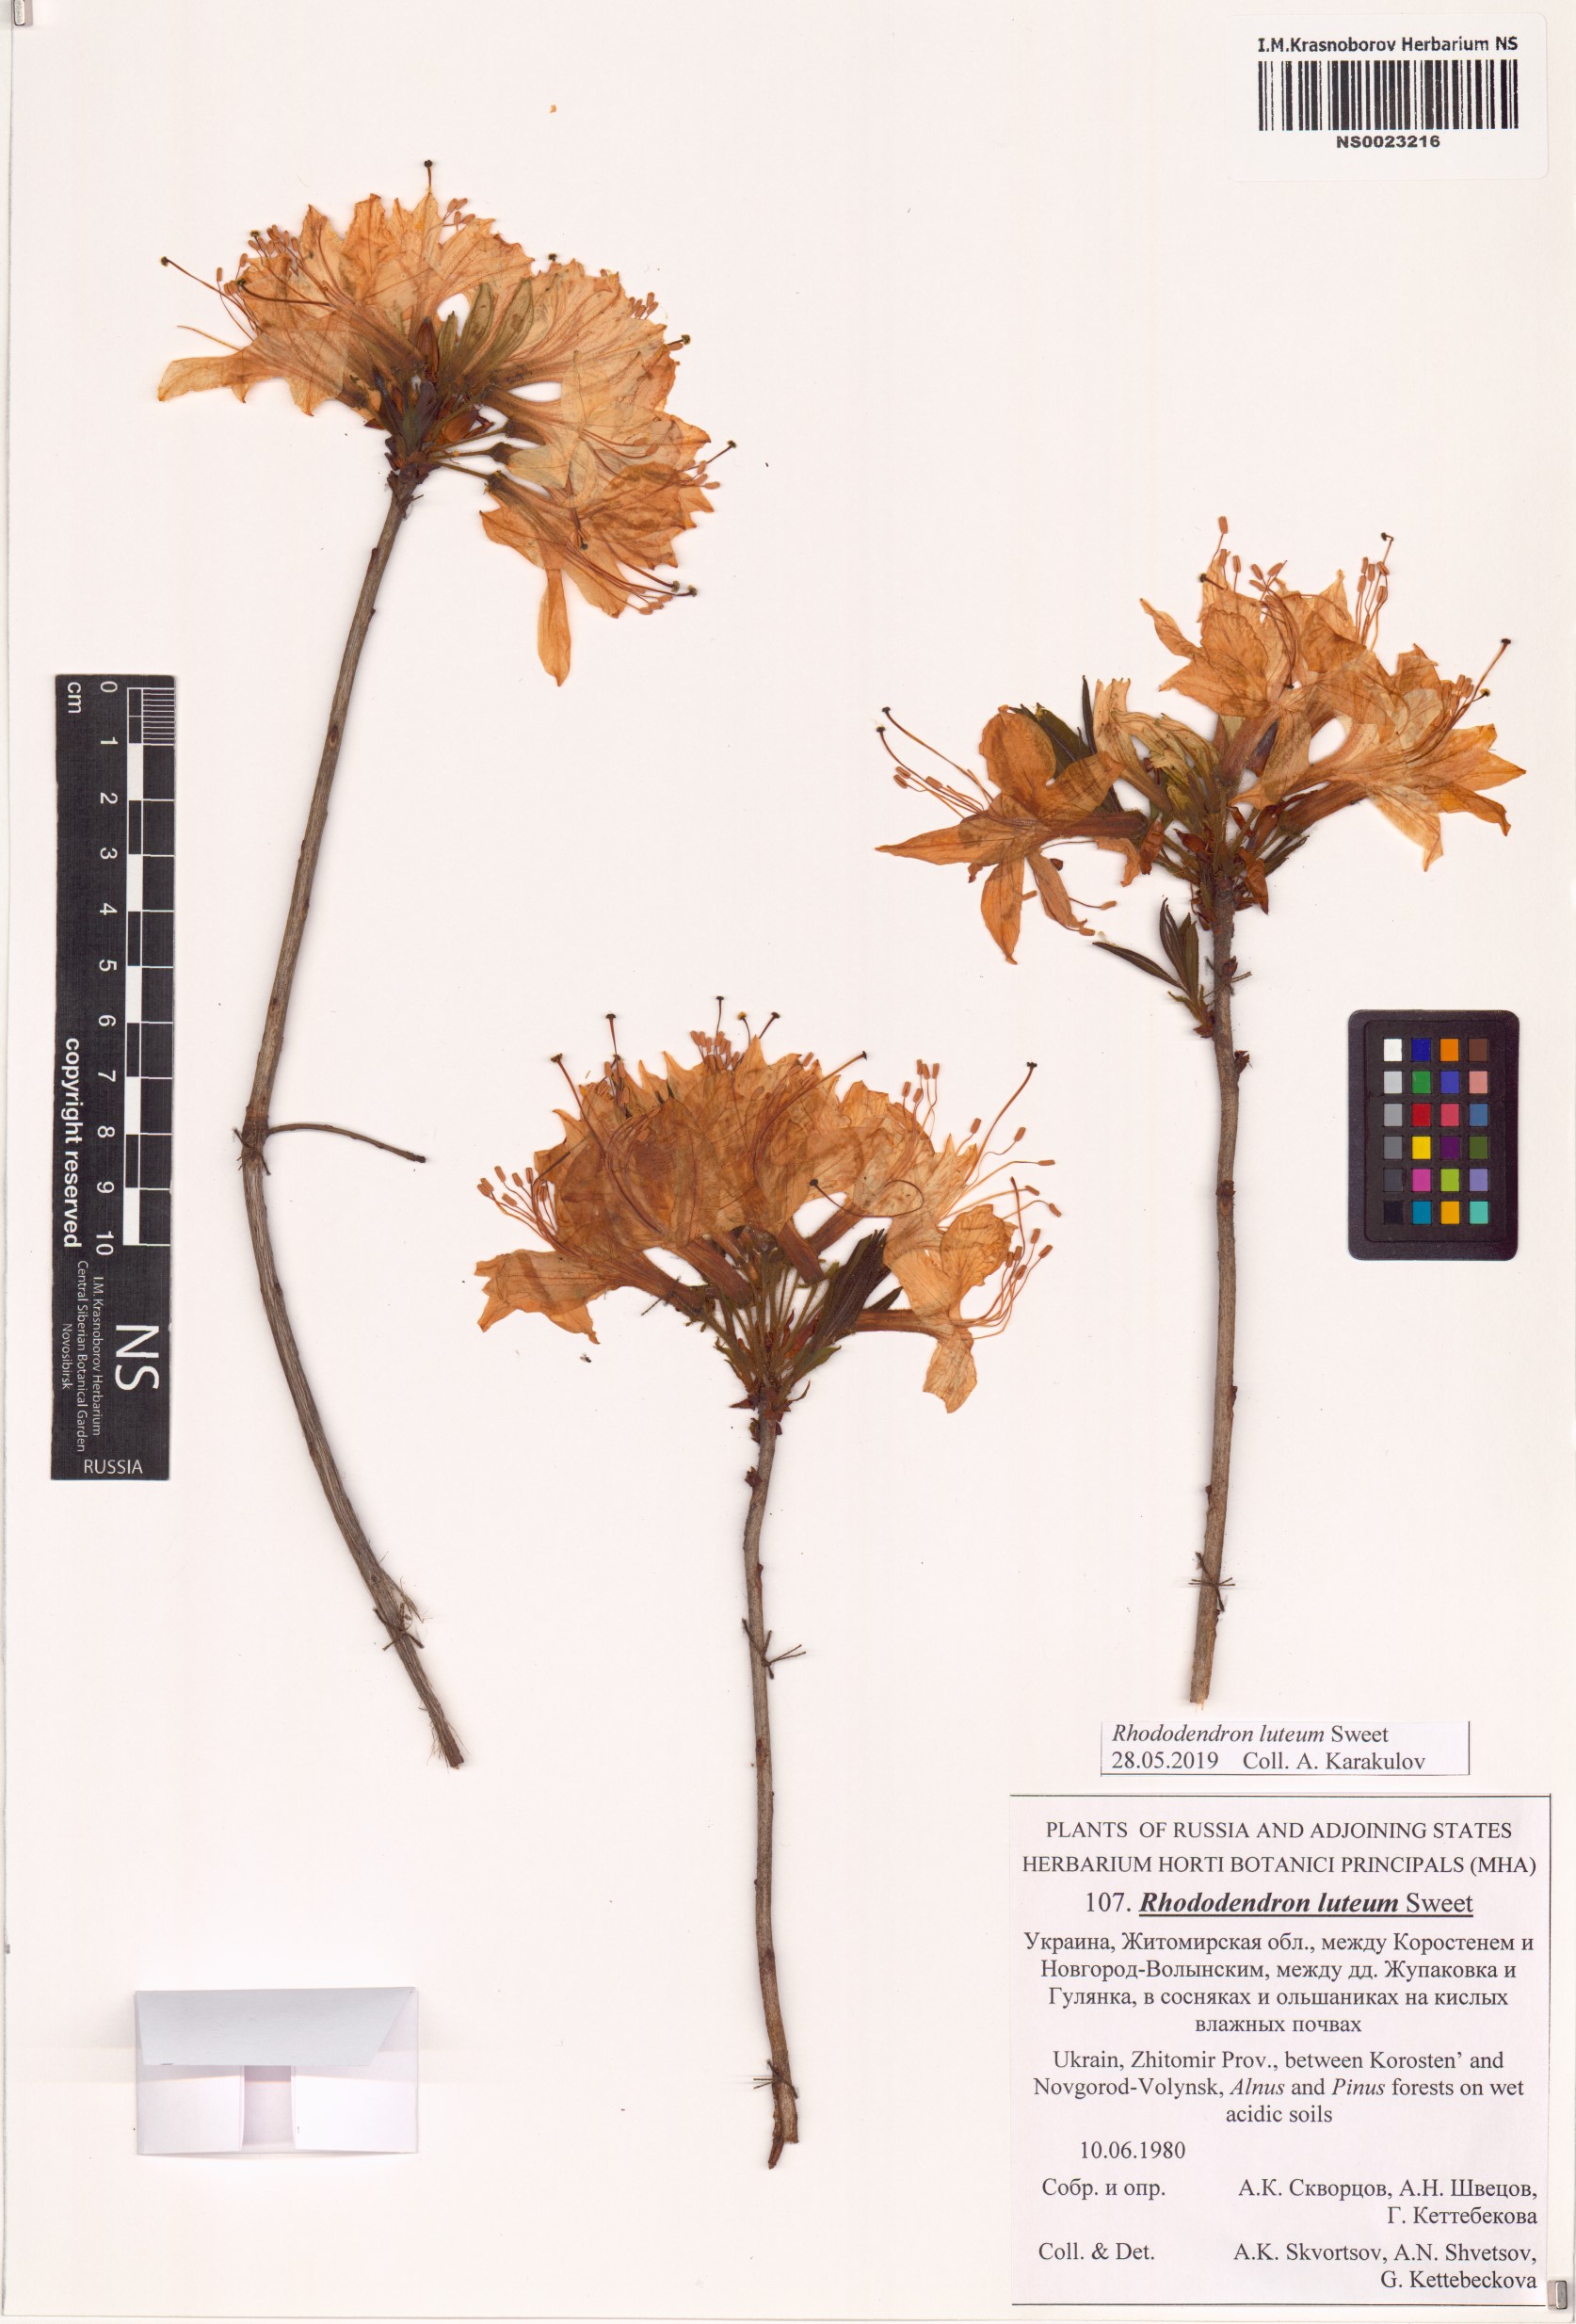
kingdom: Plantae
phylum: Tracheophyta
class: Magnoliopsida
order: Ericales
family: Ericaceae
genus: Rhododendron
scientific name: Rhododendron luteum
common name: Yellow azalea
